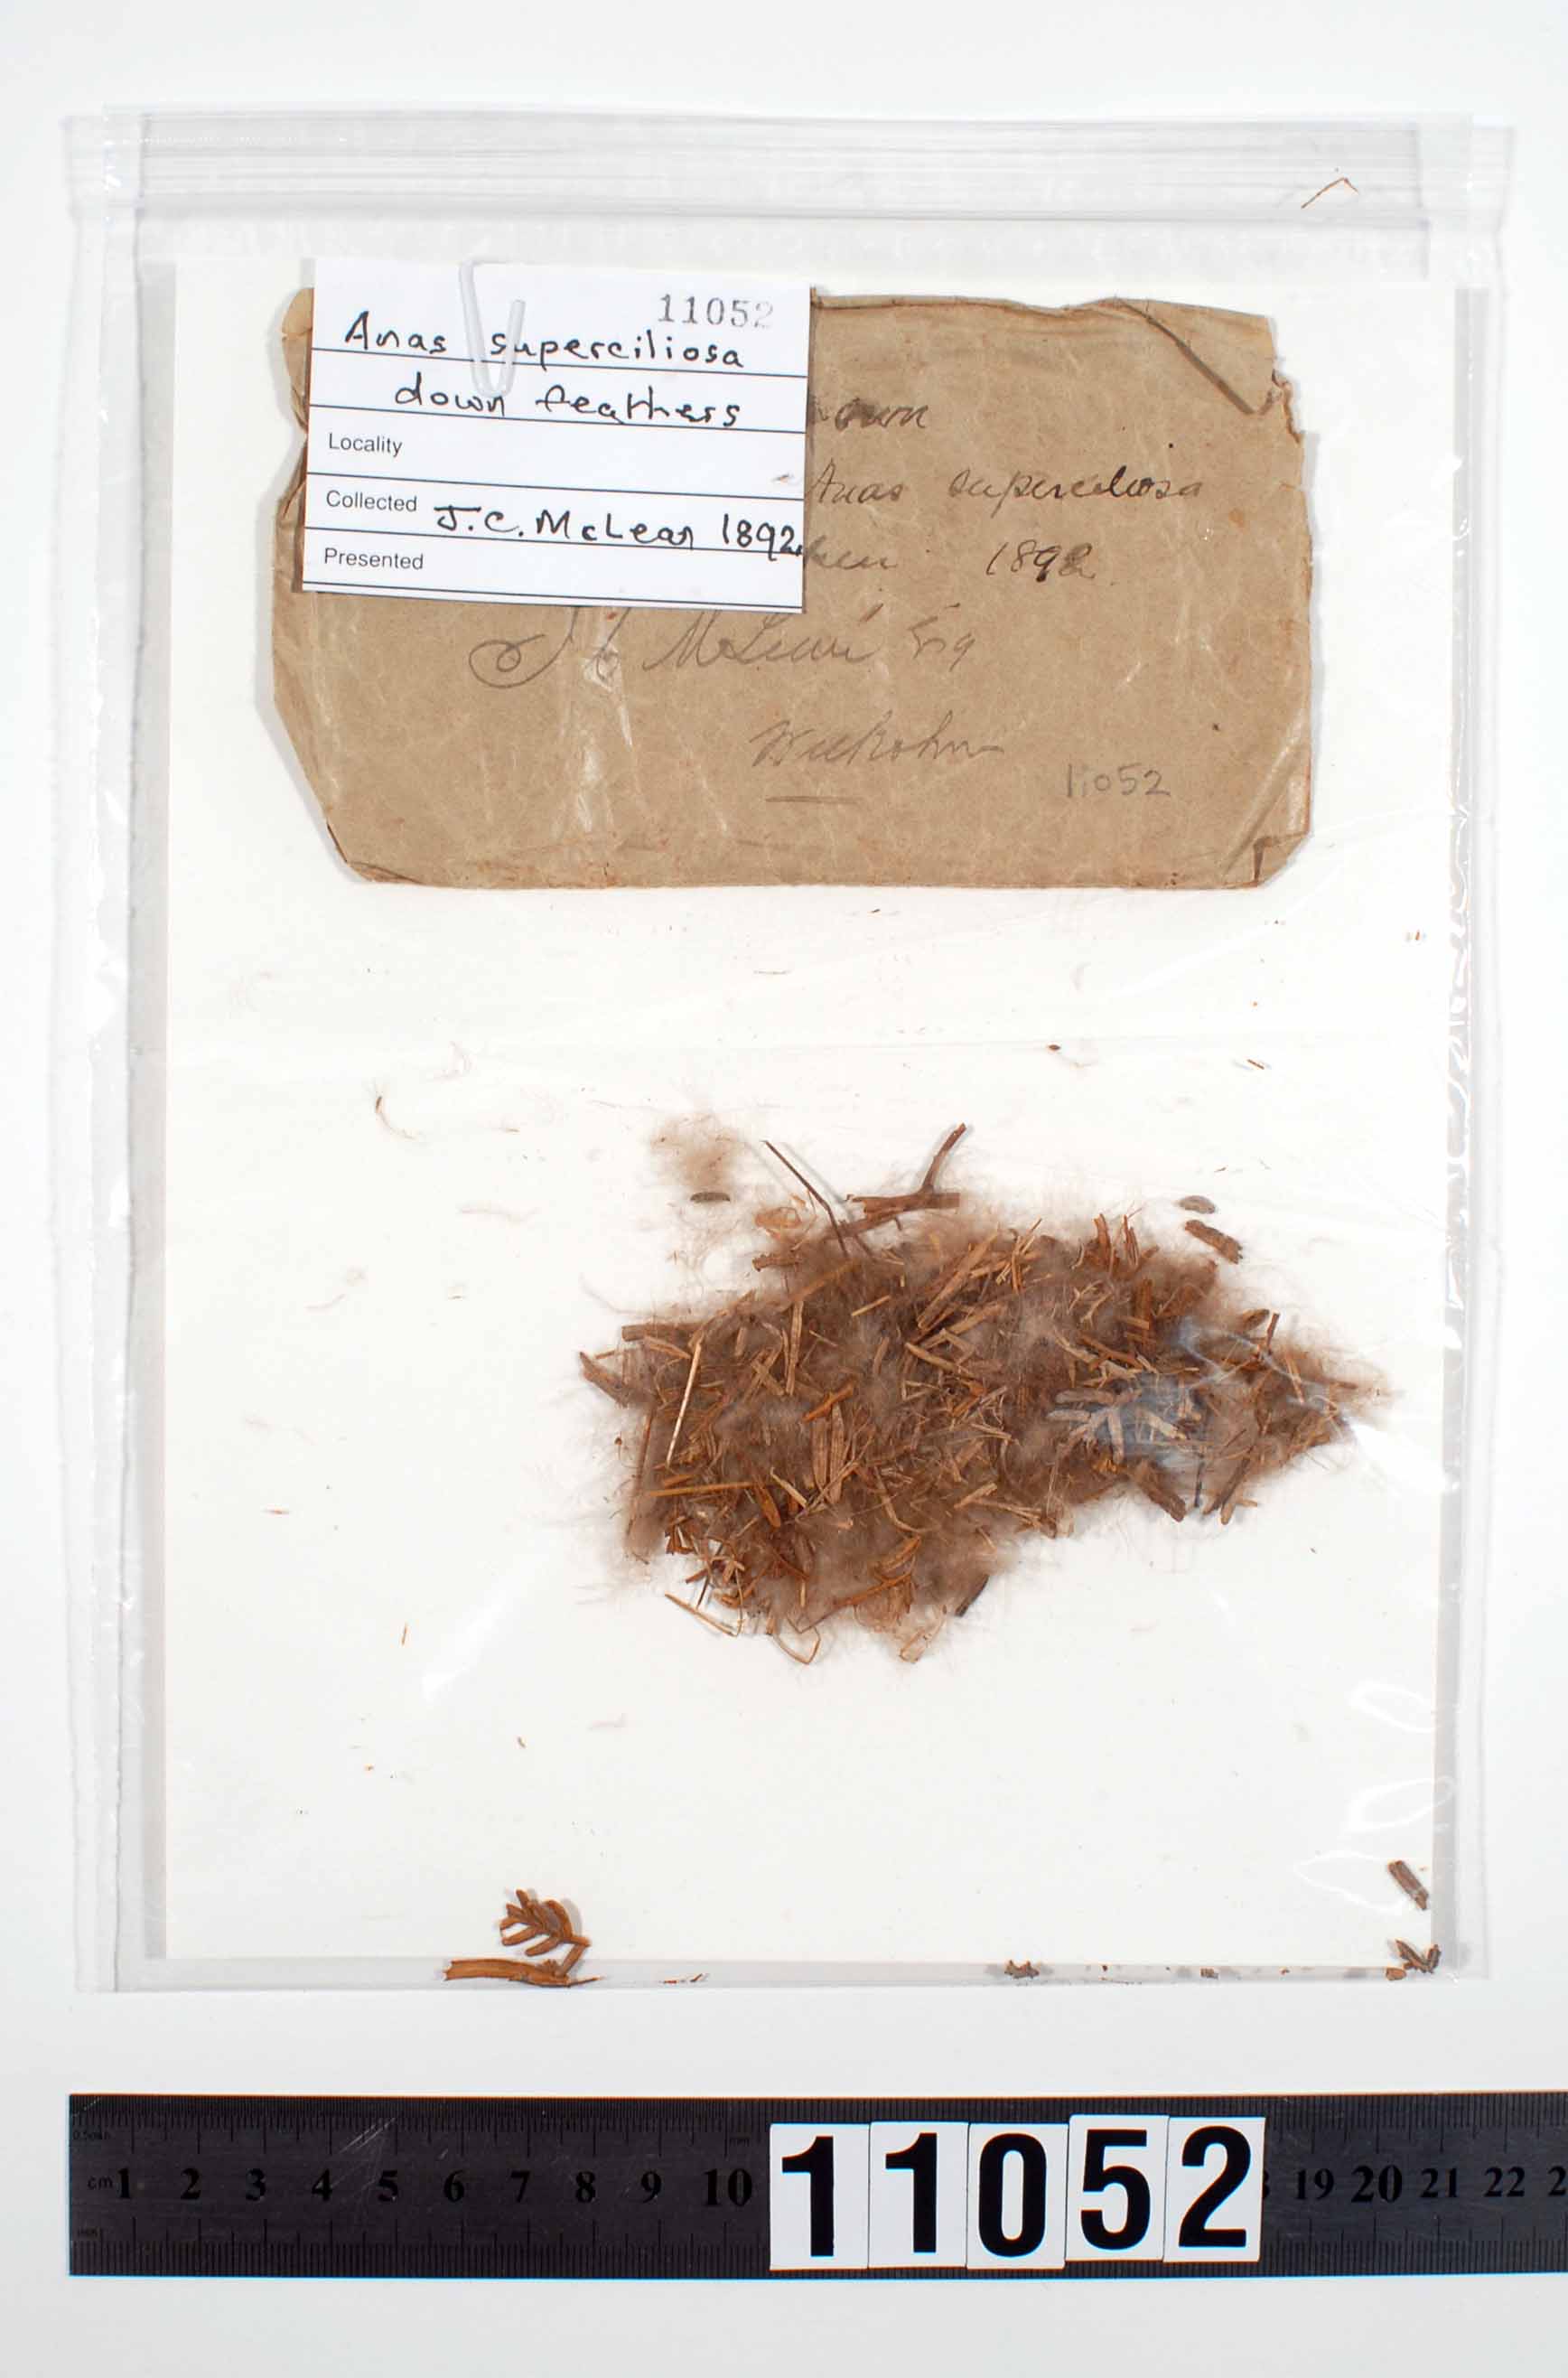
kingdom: Animalia
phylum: Chordata
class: Aves
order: Anseriformes
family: Anatidae
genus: Anas
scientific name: Anas superciliosa
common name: Pacific black duck
